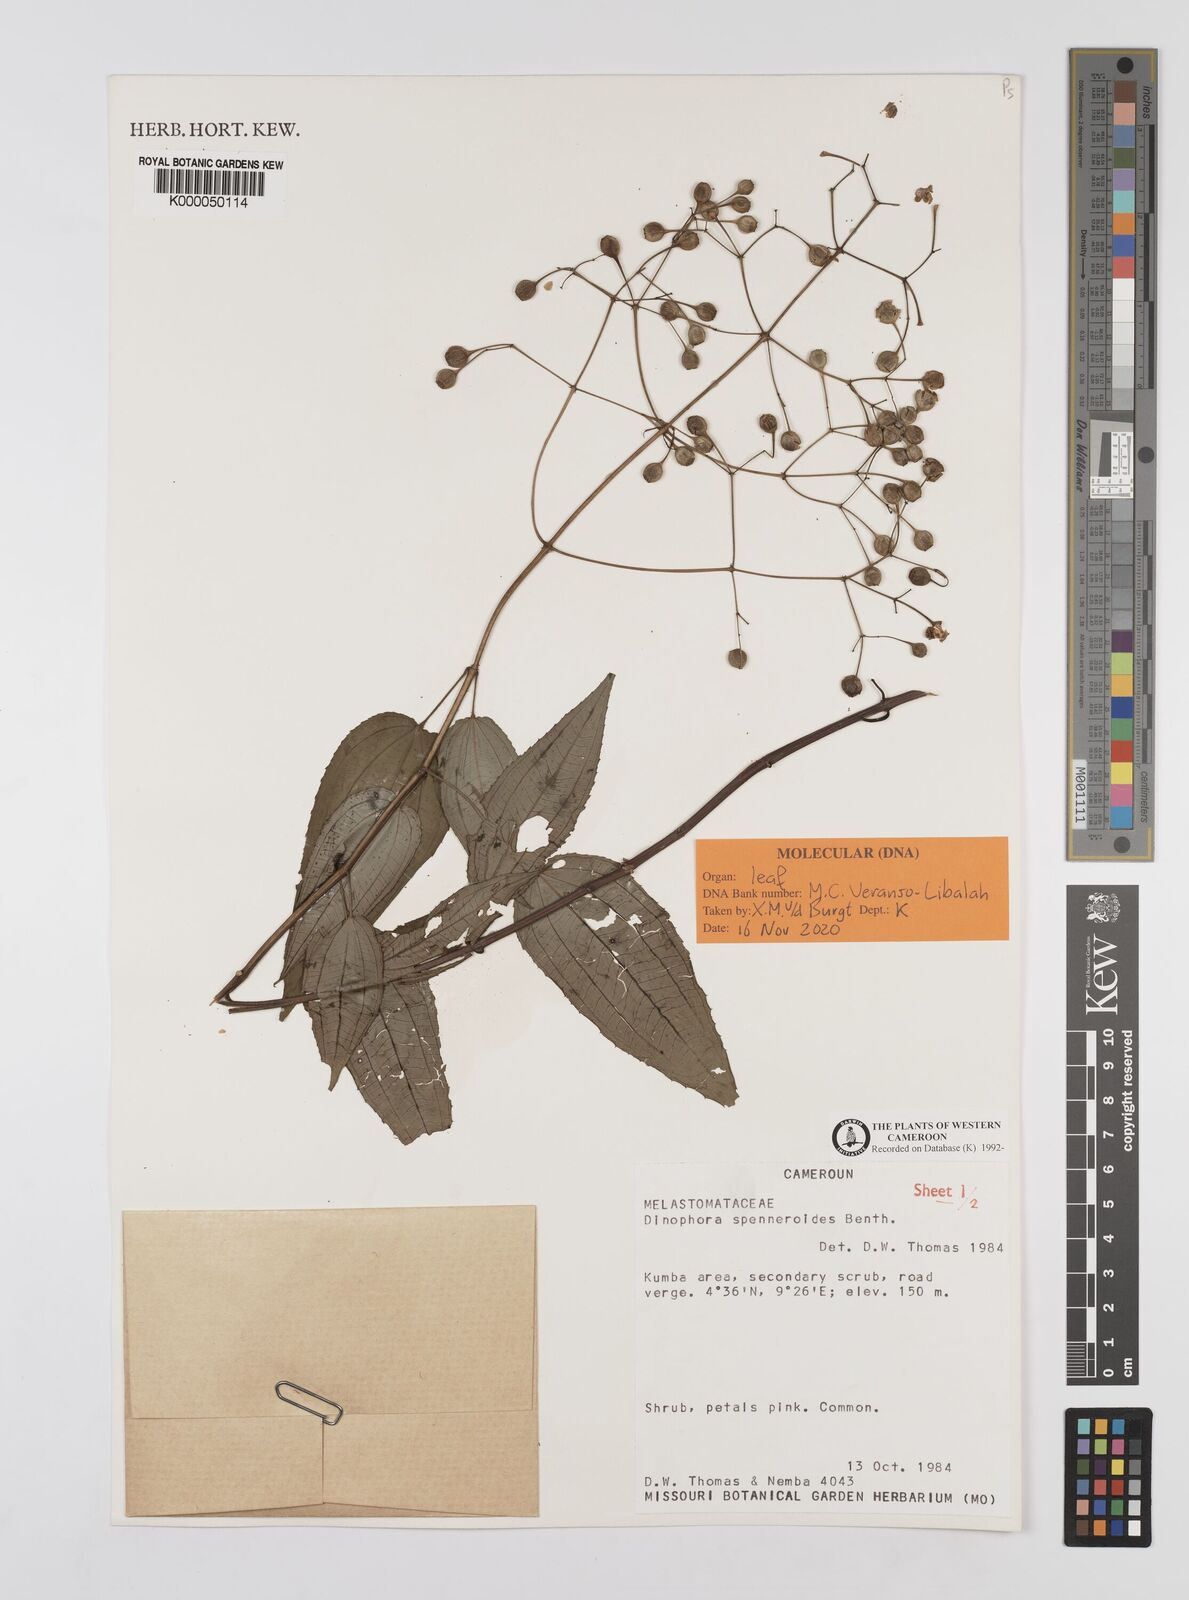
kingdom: Plantae
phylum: Tracheophyta
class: Magnoliopsida
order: Myrtales
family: Melastomataceae
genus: Dinophora
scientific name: Dinophora spenneroides
